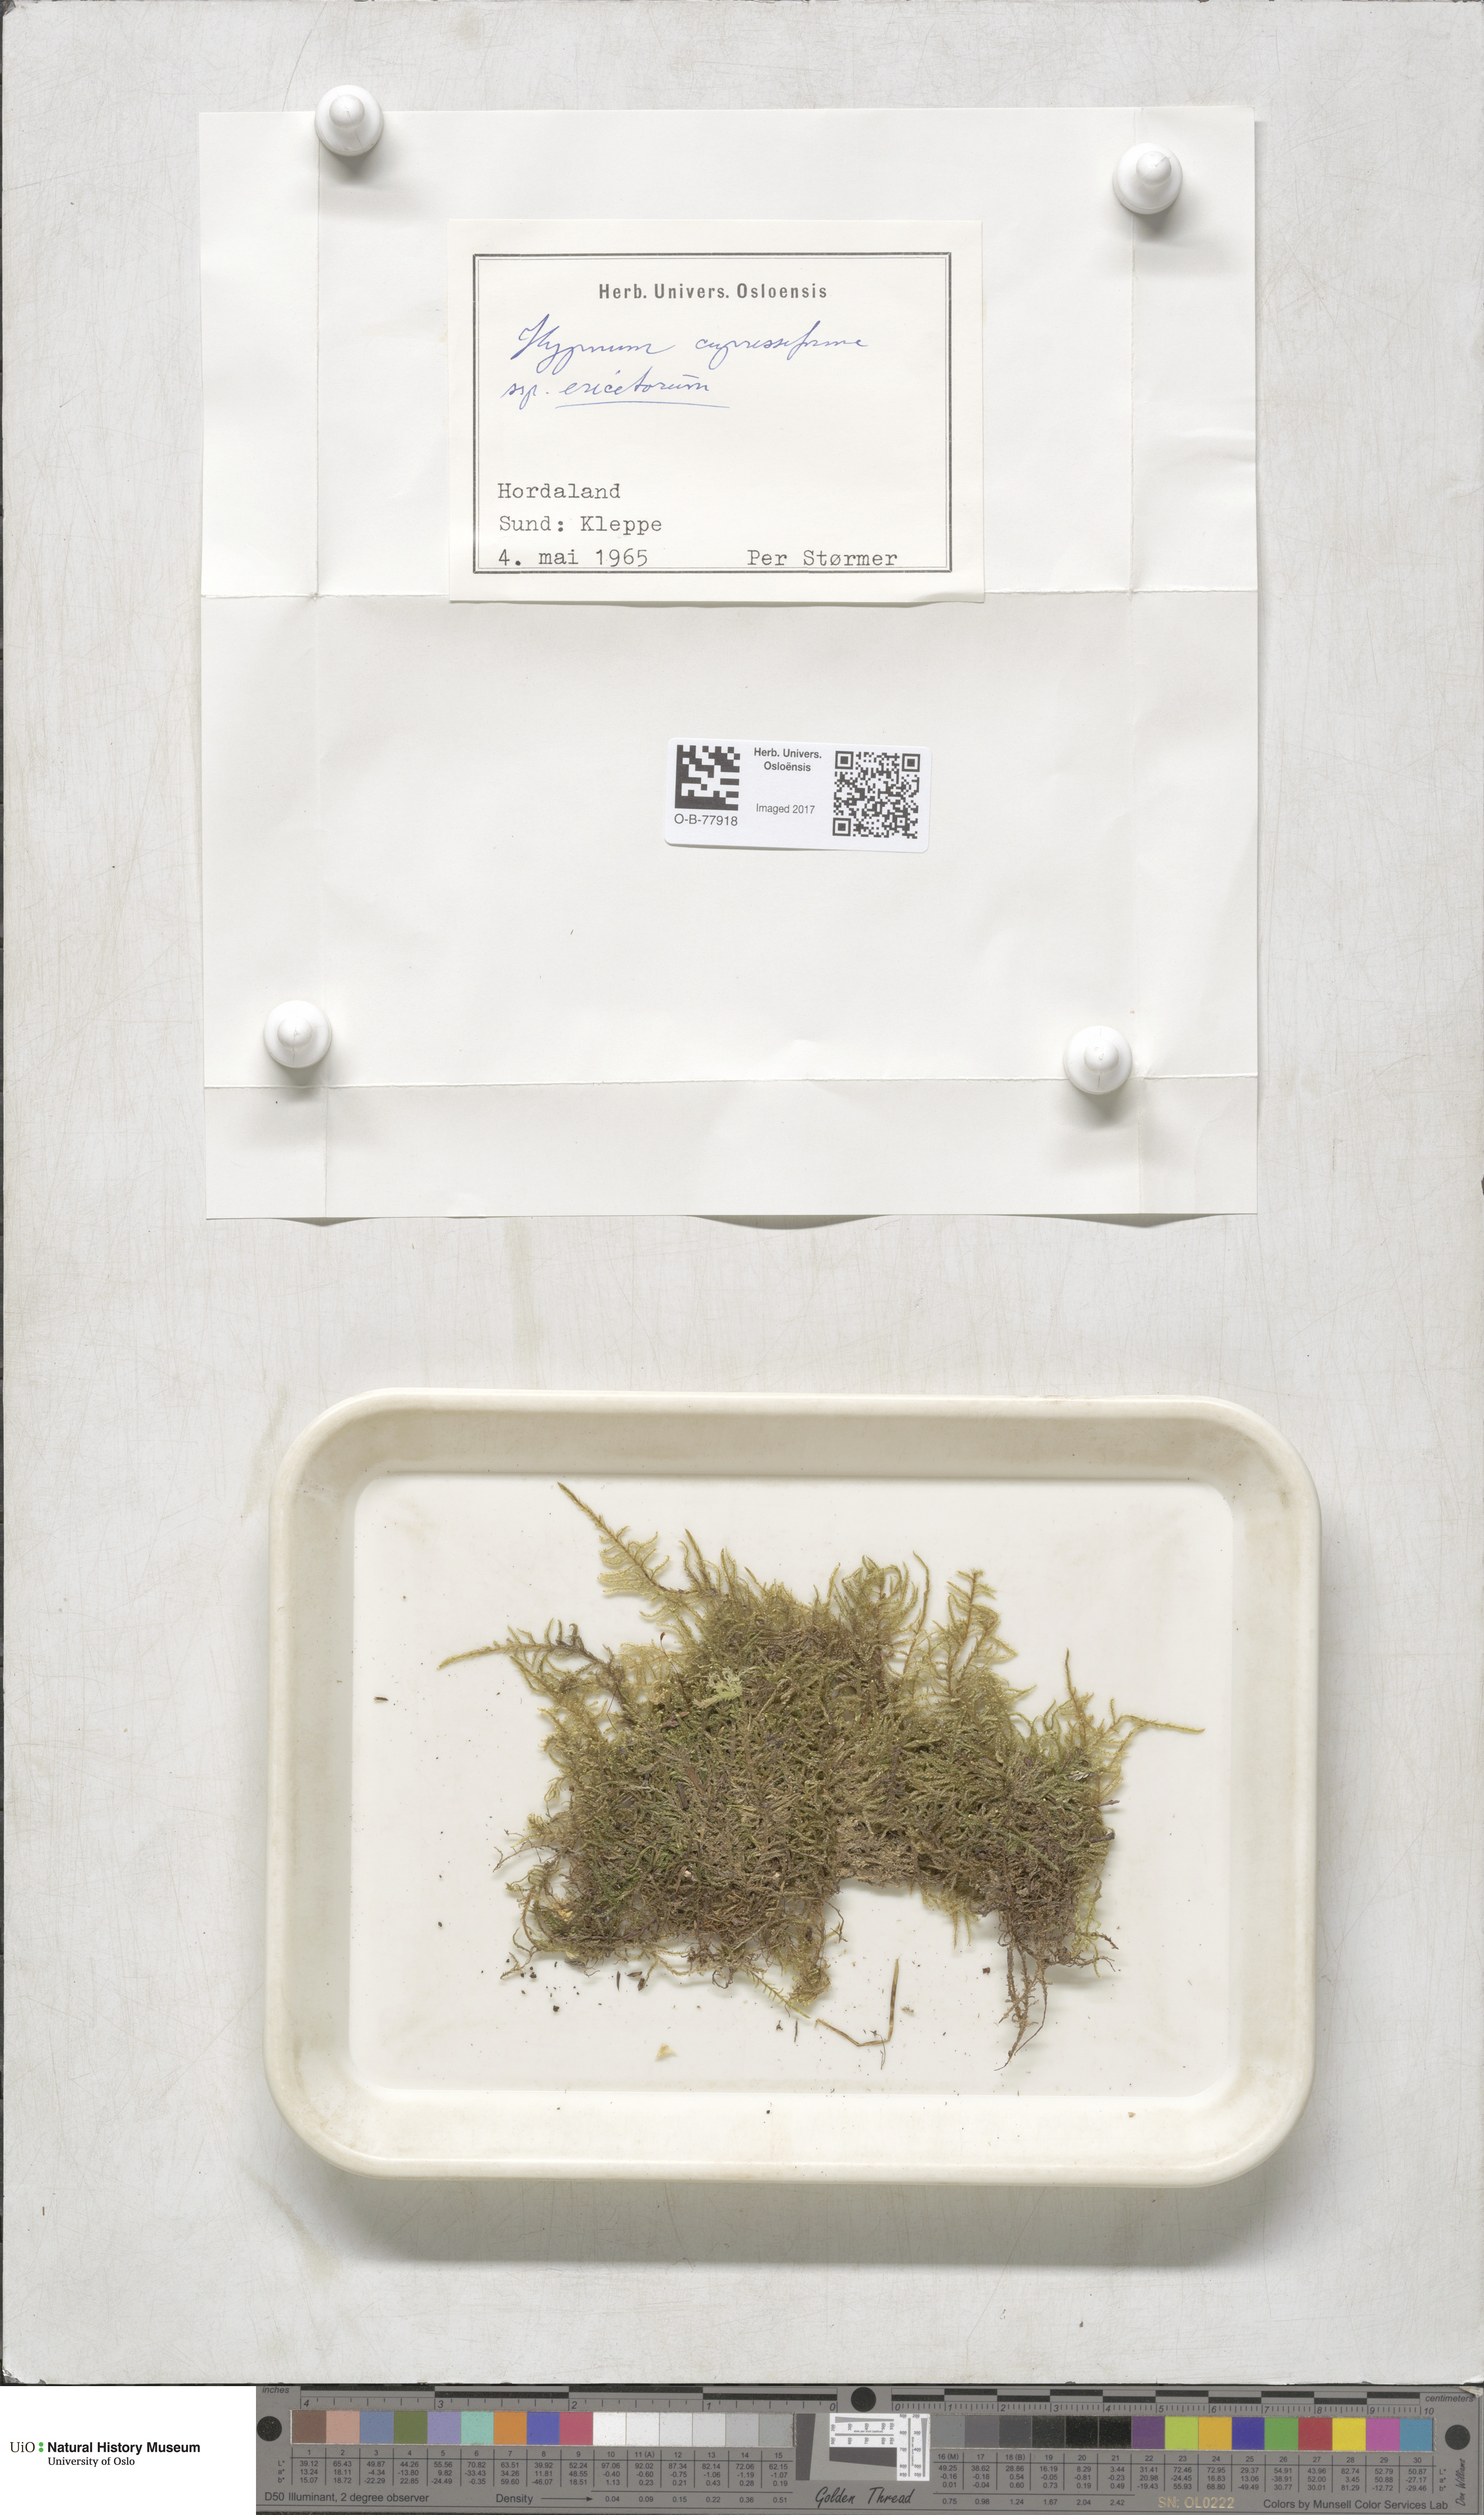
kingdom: Plantae
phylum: Bryophyta
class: Bryopsida
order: Hypnales
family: Hypnaceae
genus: Hypnum
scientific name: Hypnum jutlandicum
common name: Heath plait-moss
